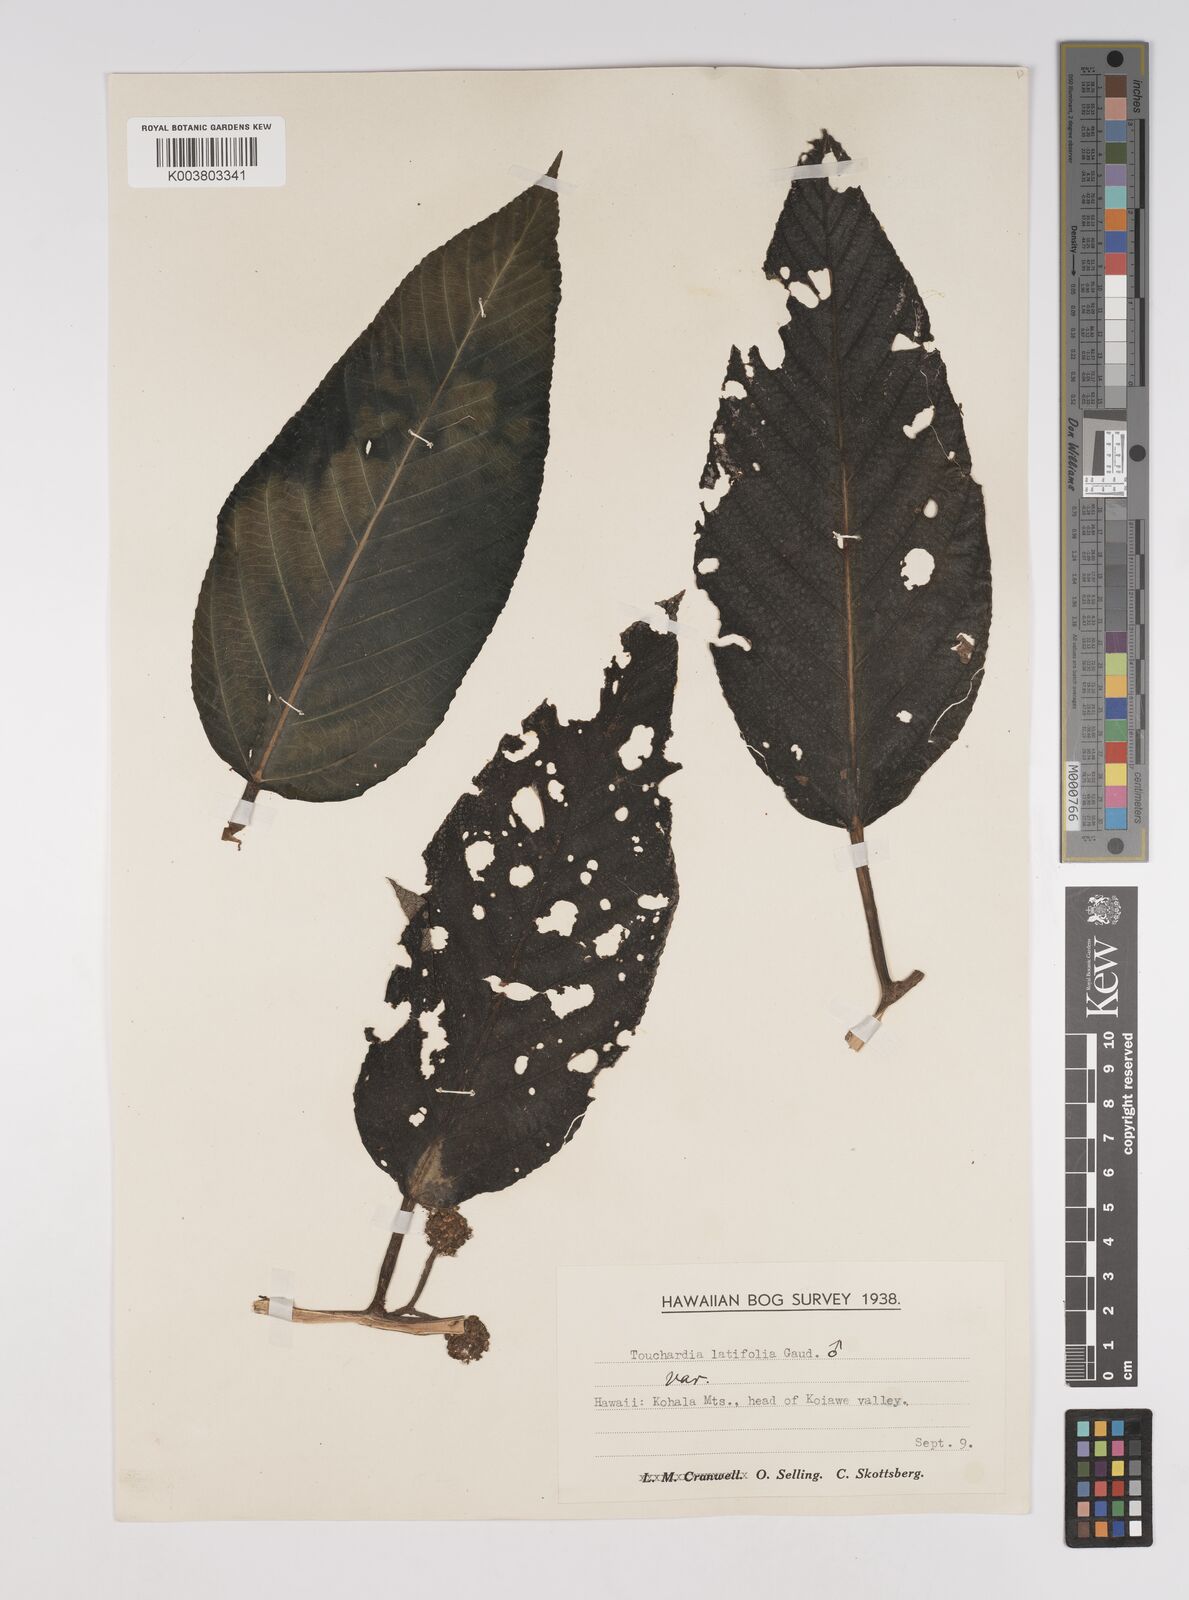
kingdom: Plantae
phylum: Tracheophyta
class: Magnoliopsida
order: Rosales
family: Urticaceae
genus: Touchardia
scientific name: Touchardia latifolia
